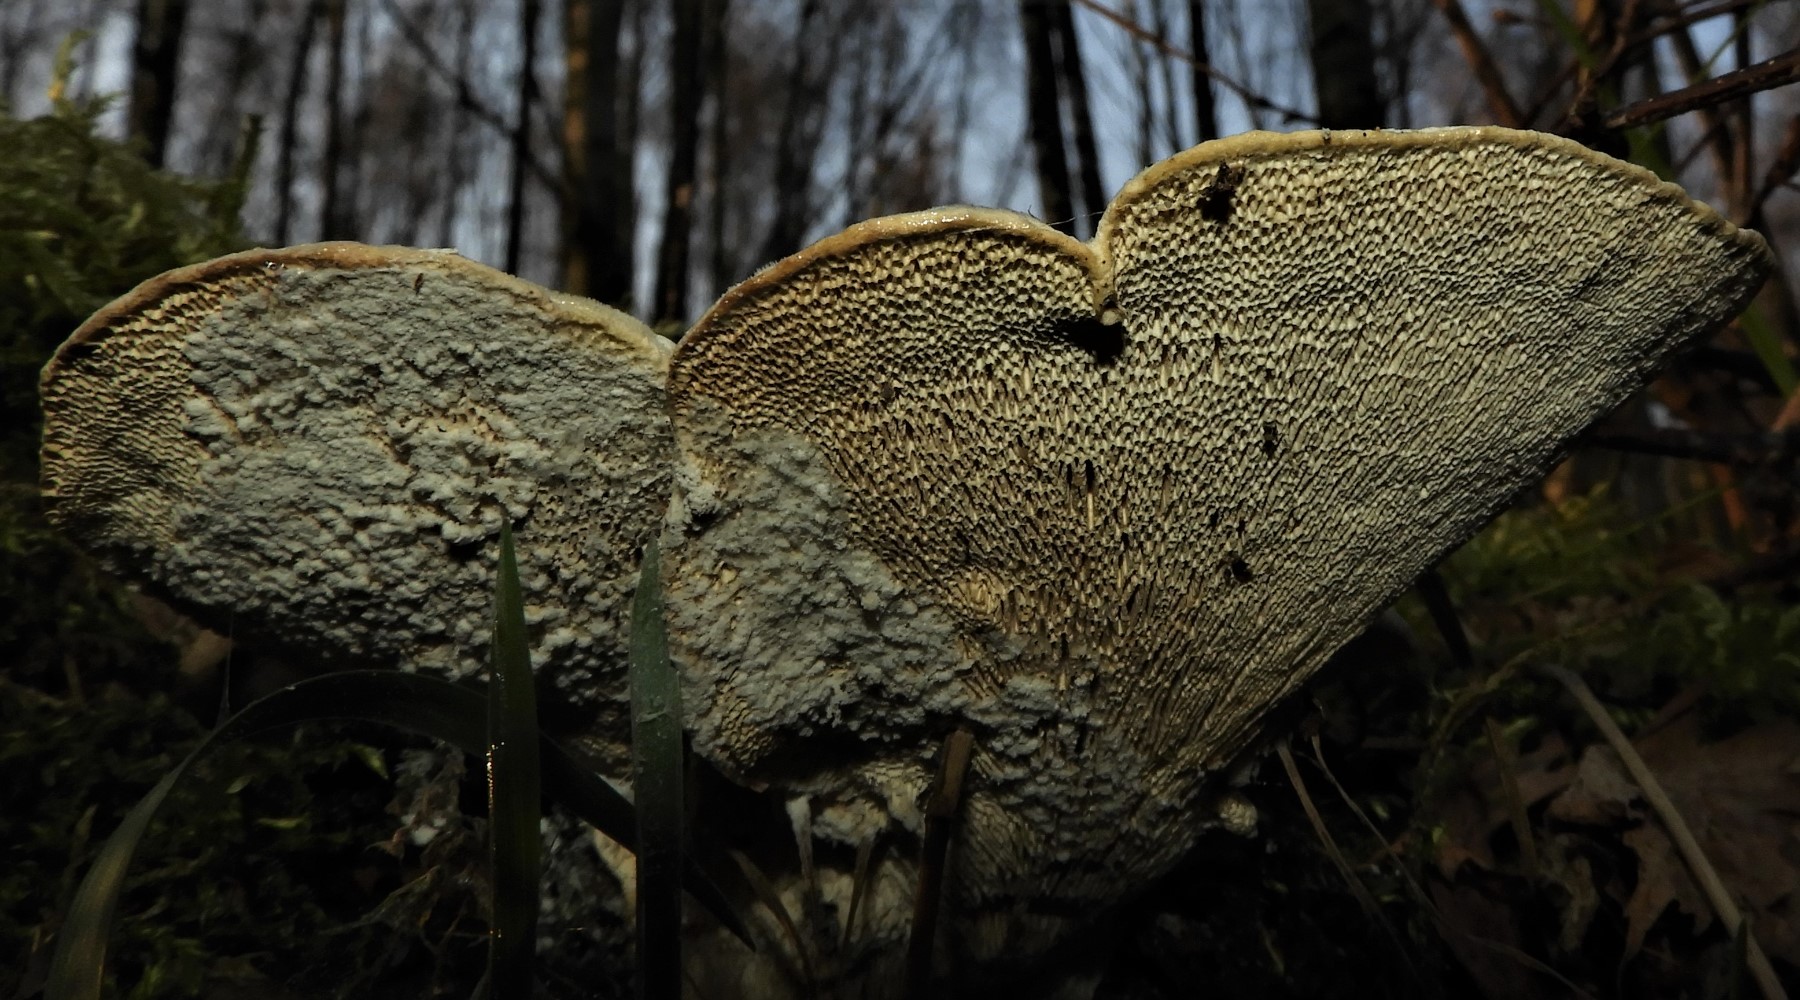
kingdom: Fungi
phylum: Basidiomycota
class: Agaricomycetes
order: Polyporales
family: Polyporaceae
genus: Trametes
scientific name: Trametes gibbosa
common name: puklet læderporesvamp
